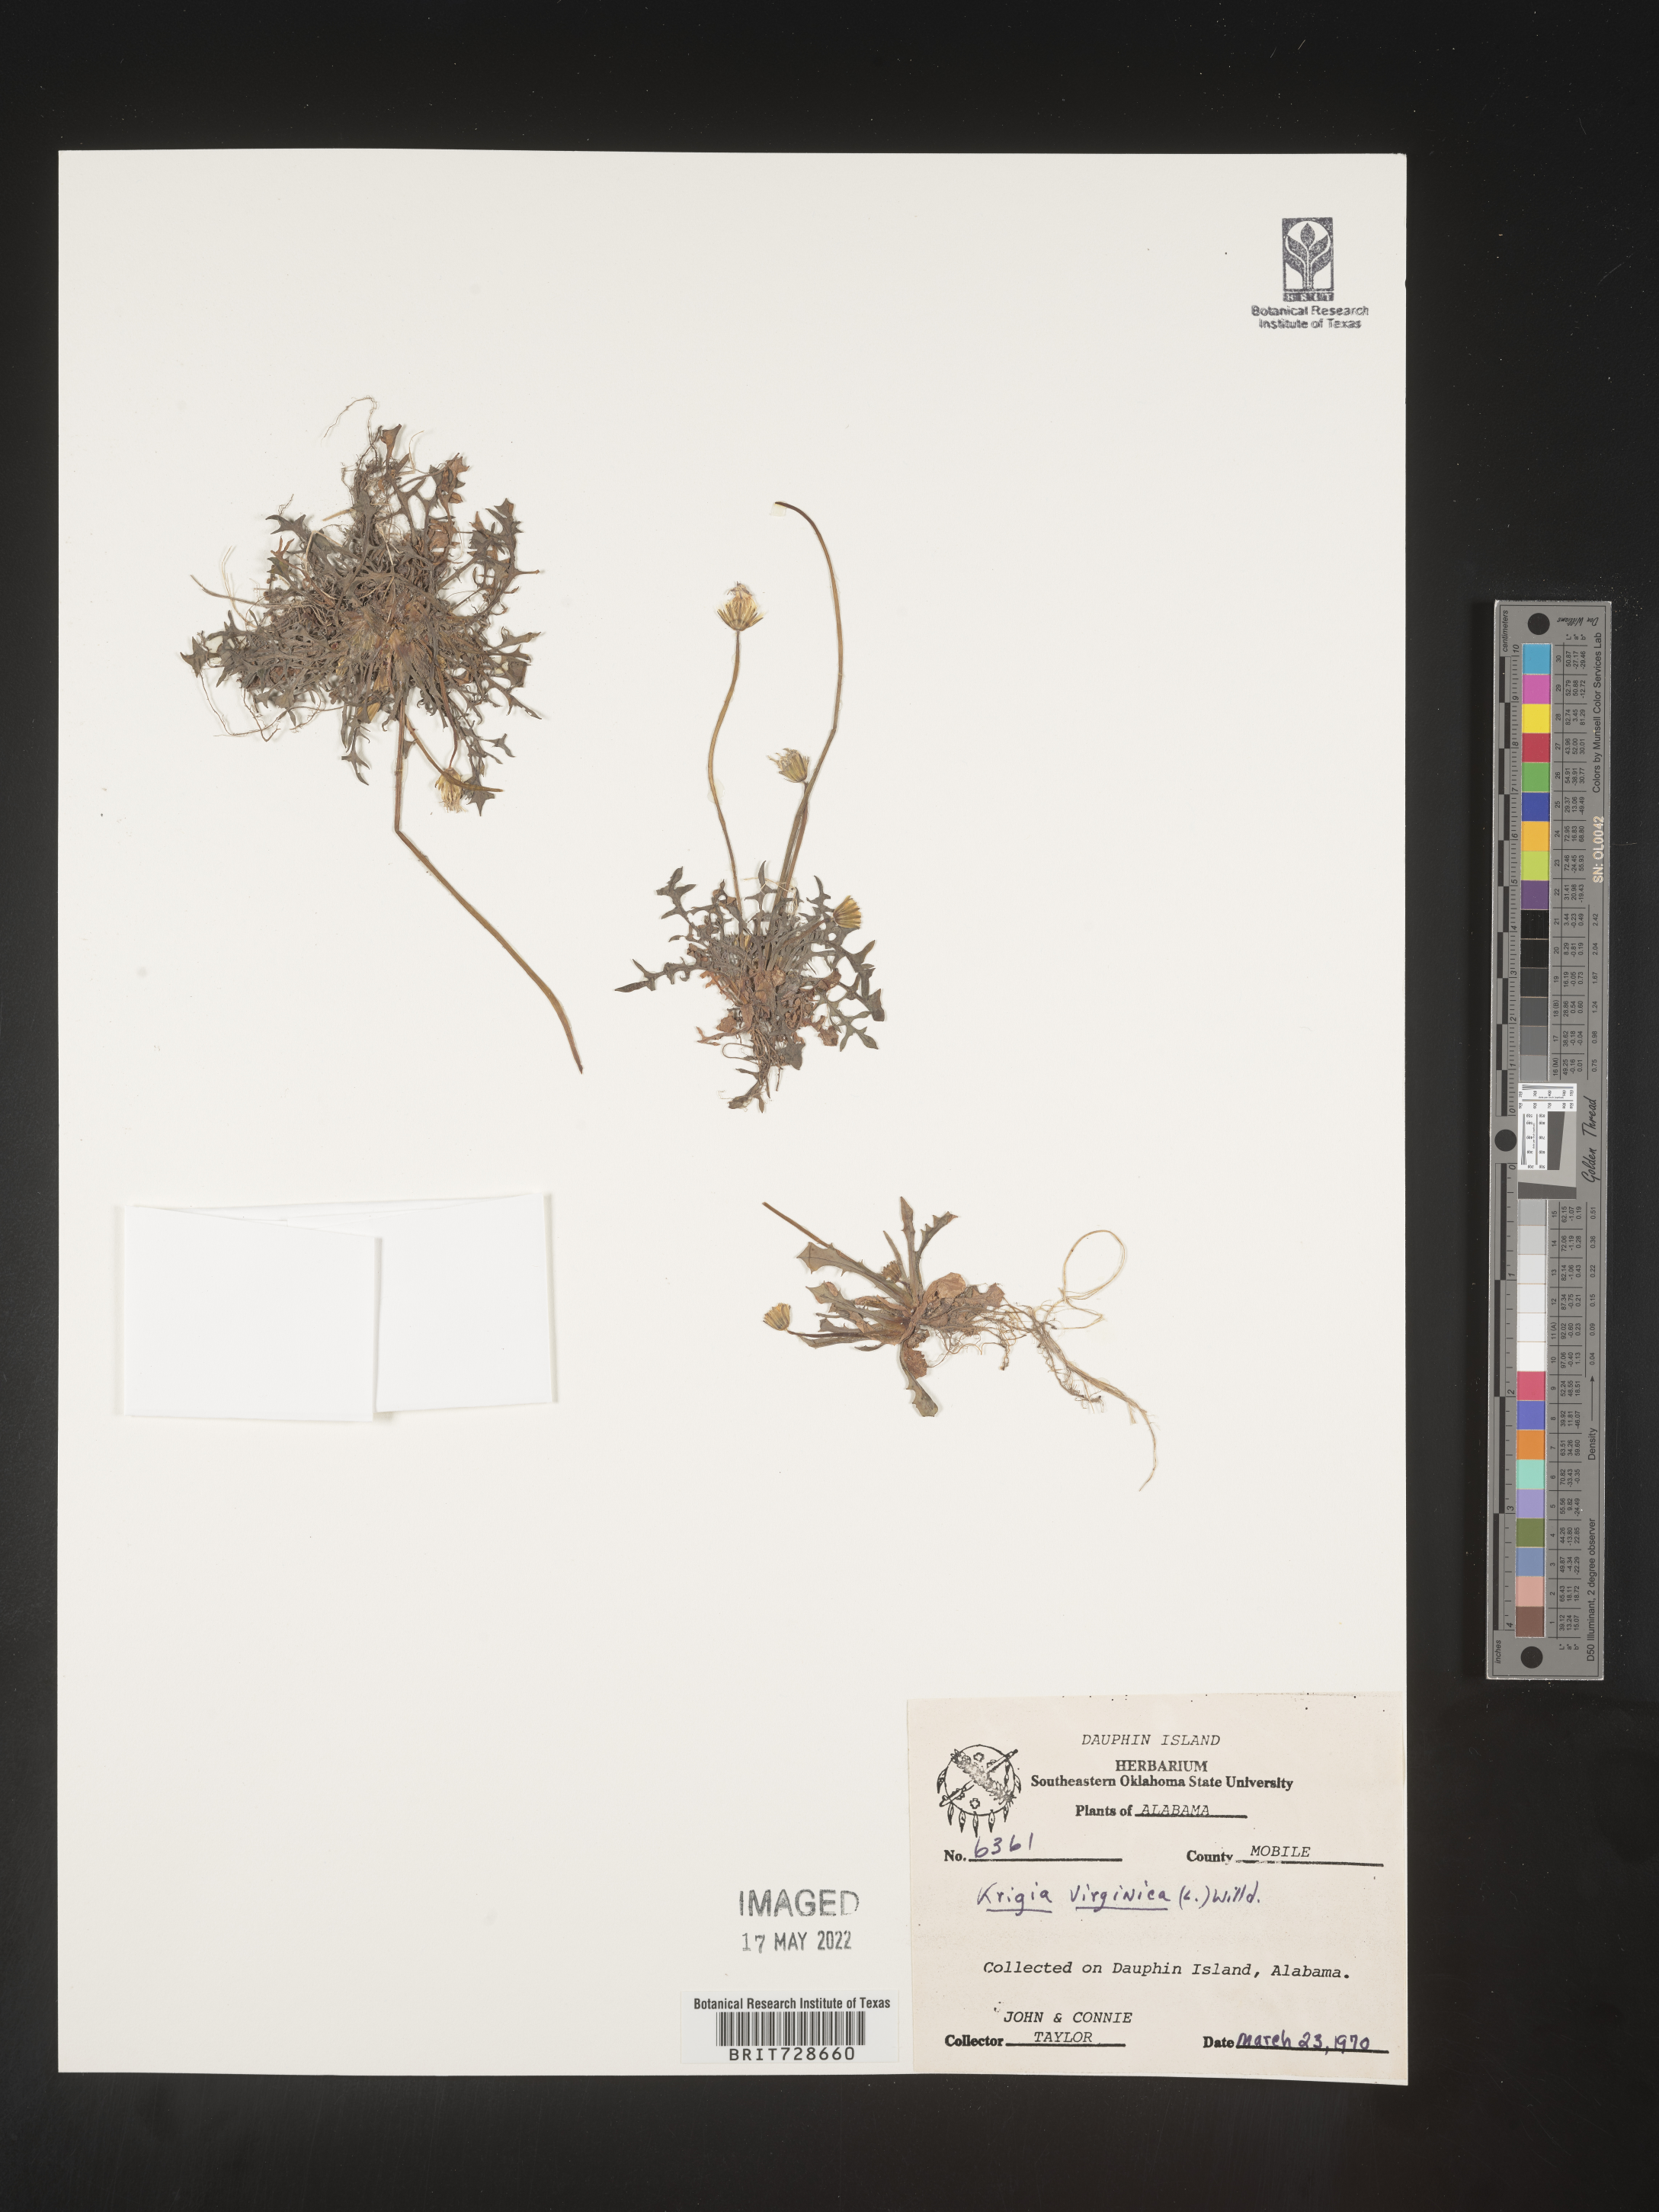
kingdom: Plantae
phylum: Tracheophyta
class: Magnoliopsida
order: Asterales
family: Asteraceae
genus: Krigia
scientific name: Krigia virginica
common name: Virginia dwarf-dandelion
